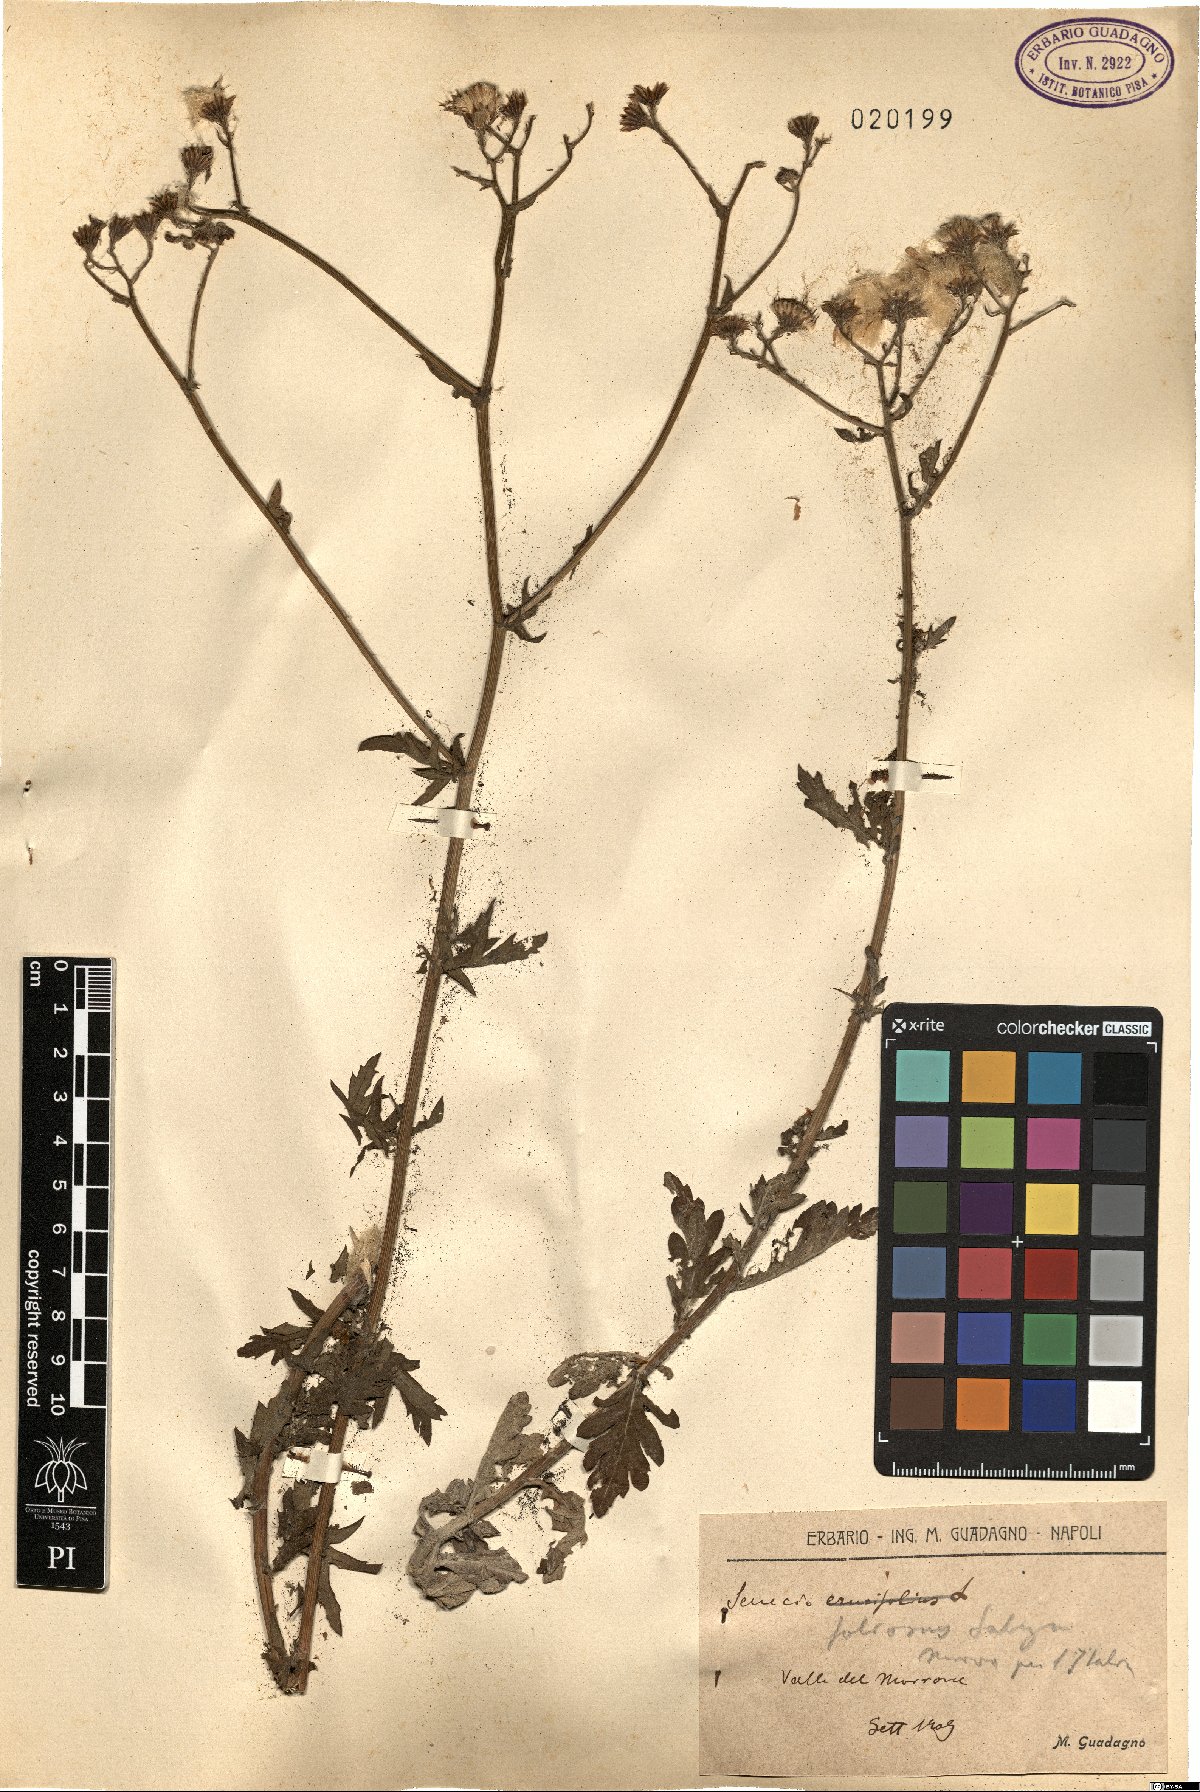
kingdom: Plantae
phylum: Tracheophyta
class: Magnoliopsida
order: Asterales
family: Asteraceae
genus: Jacobaea
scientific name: Jacobaea vulgaris
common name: Stinking willie
